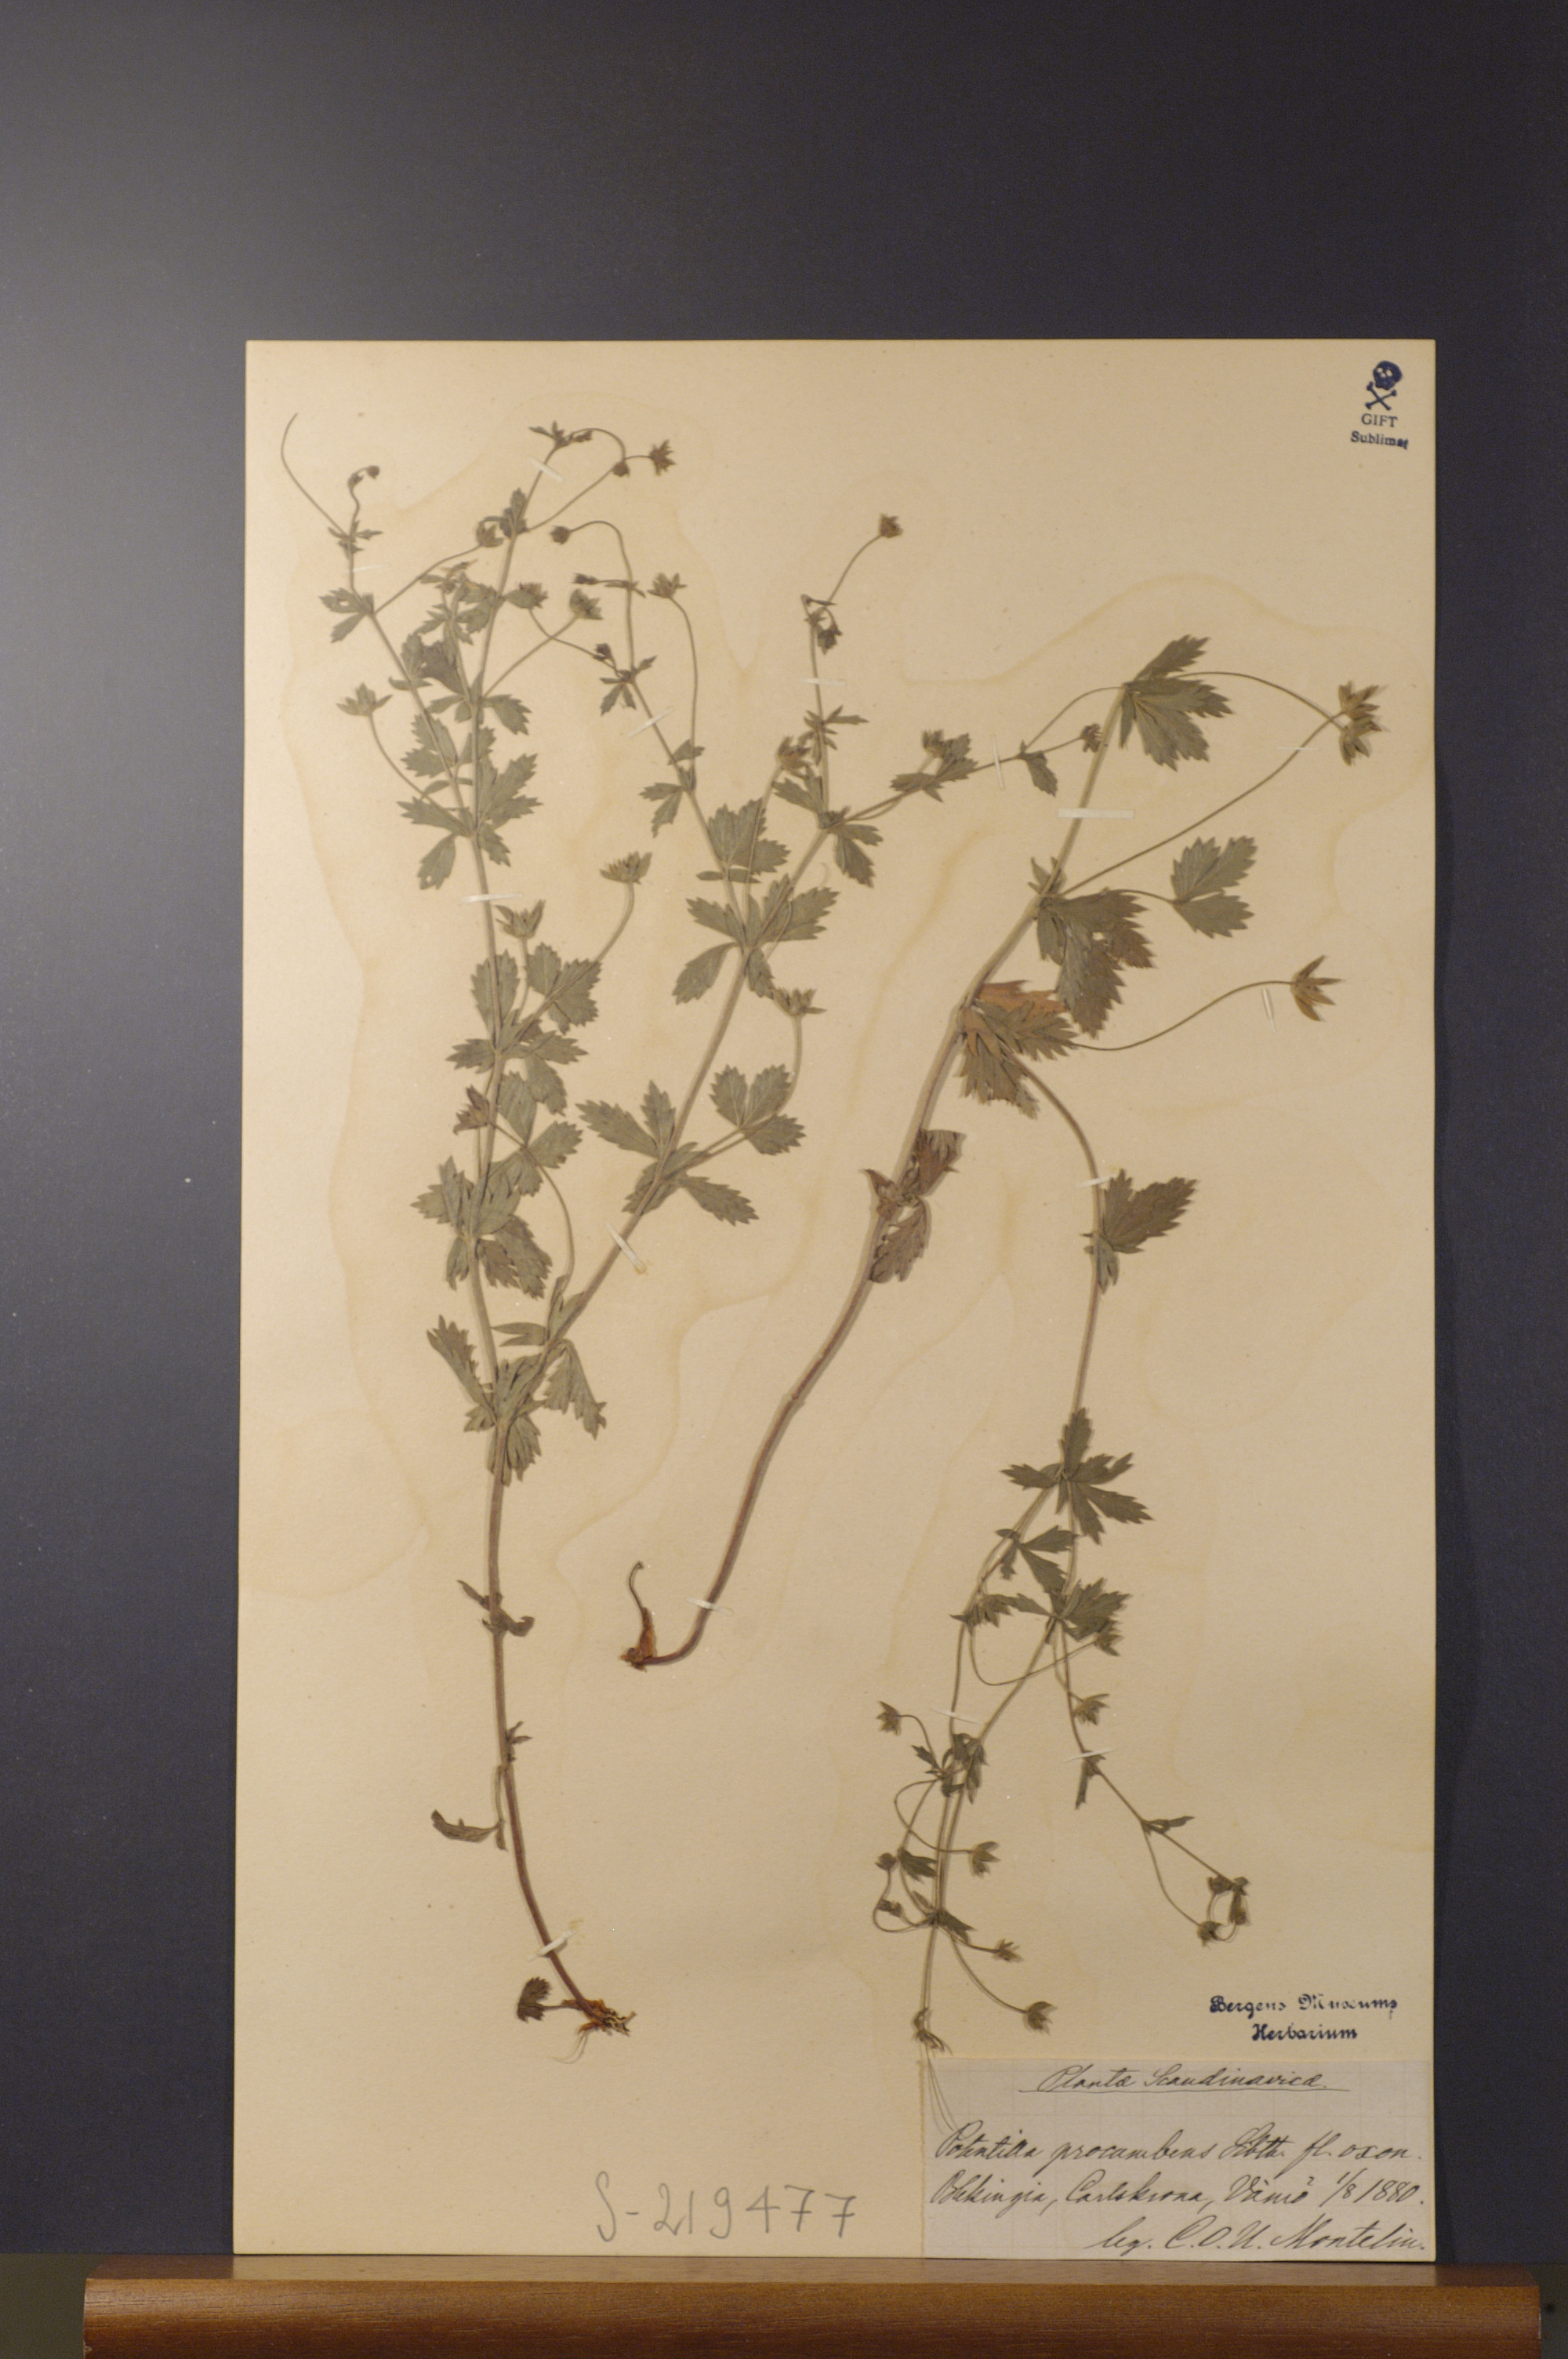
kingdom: Plantae
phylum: Tracheophyta
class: Magnoliopsida
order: Rosales
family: Rosaceae
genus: Potentilla
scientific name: Potentilla anglica
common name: Trailing tormentil
